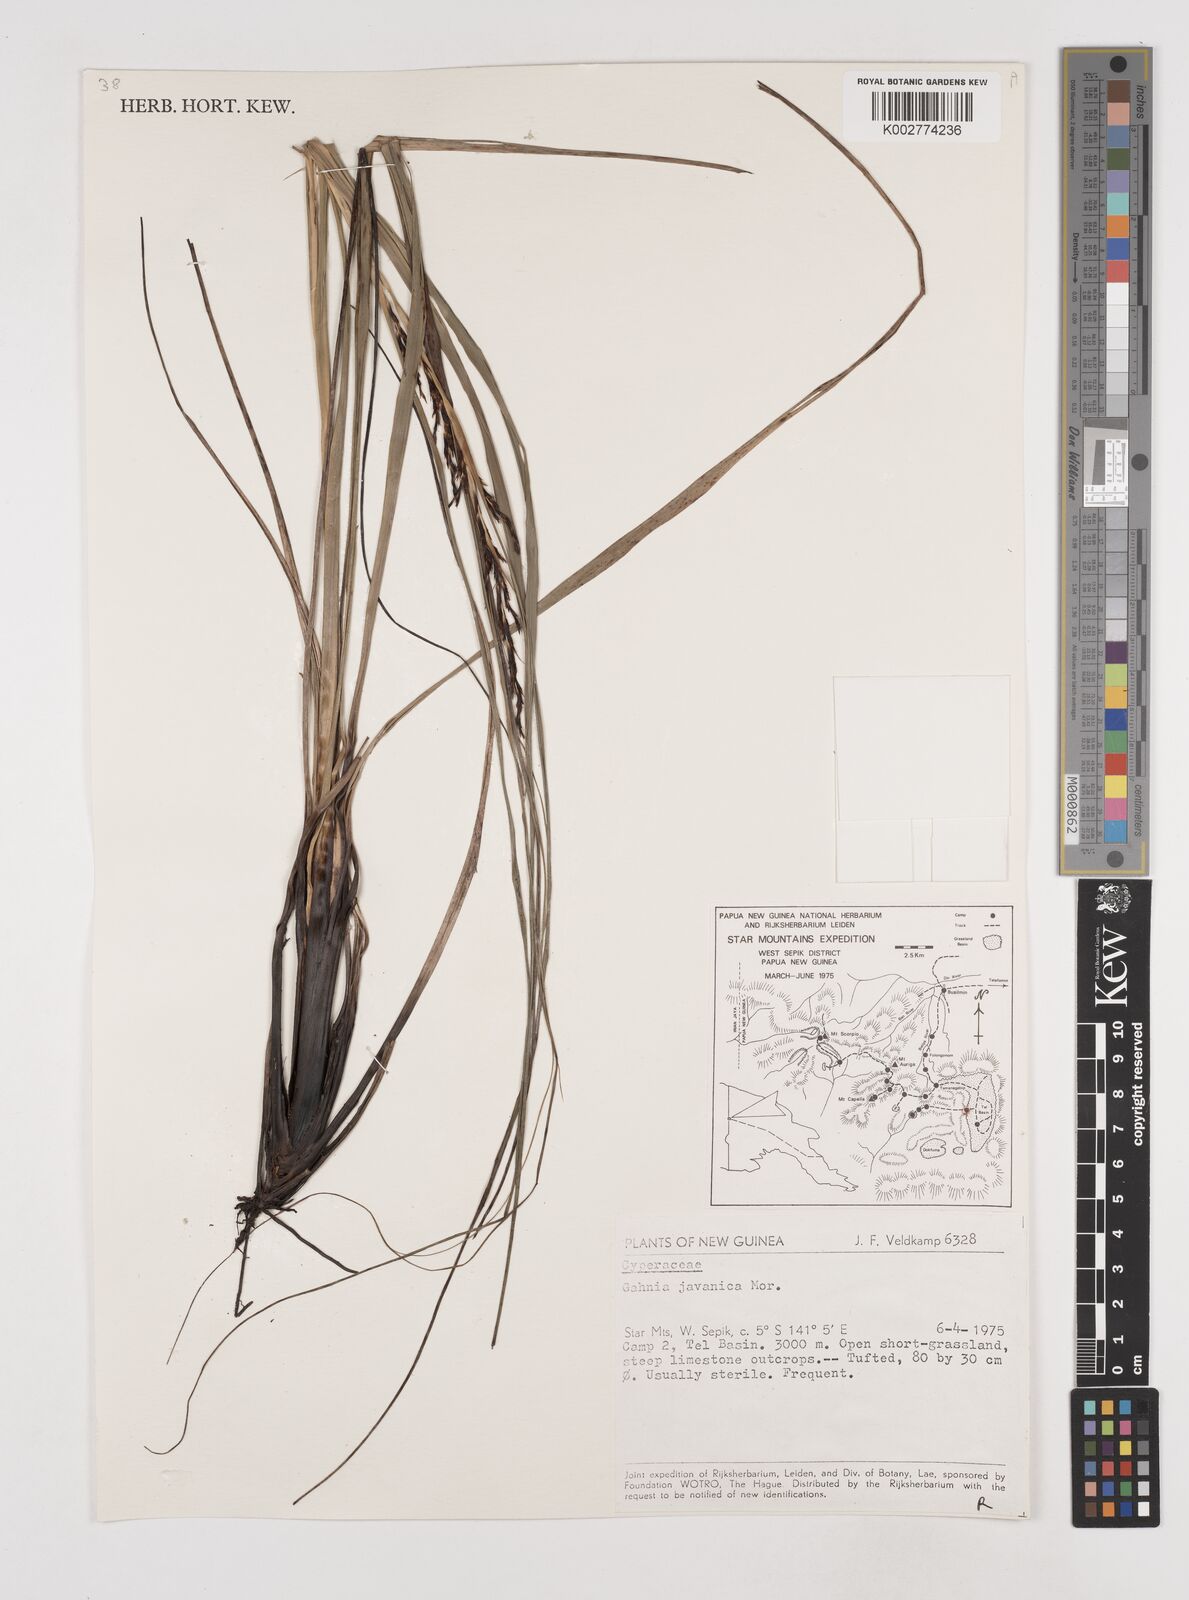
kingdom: Plantae
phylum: Tracheophyta
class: Liliopsida
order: Poales
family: Cyperaceae
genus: Gahnia
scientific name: Gahnia javanica
